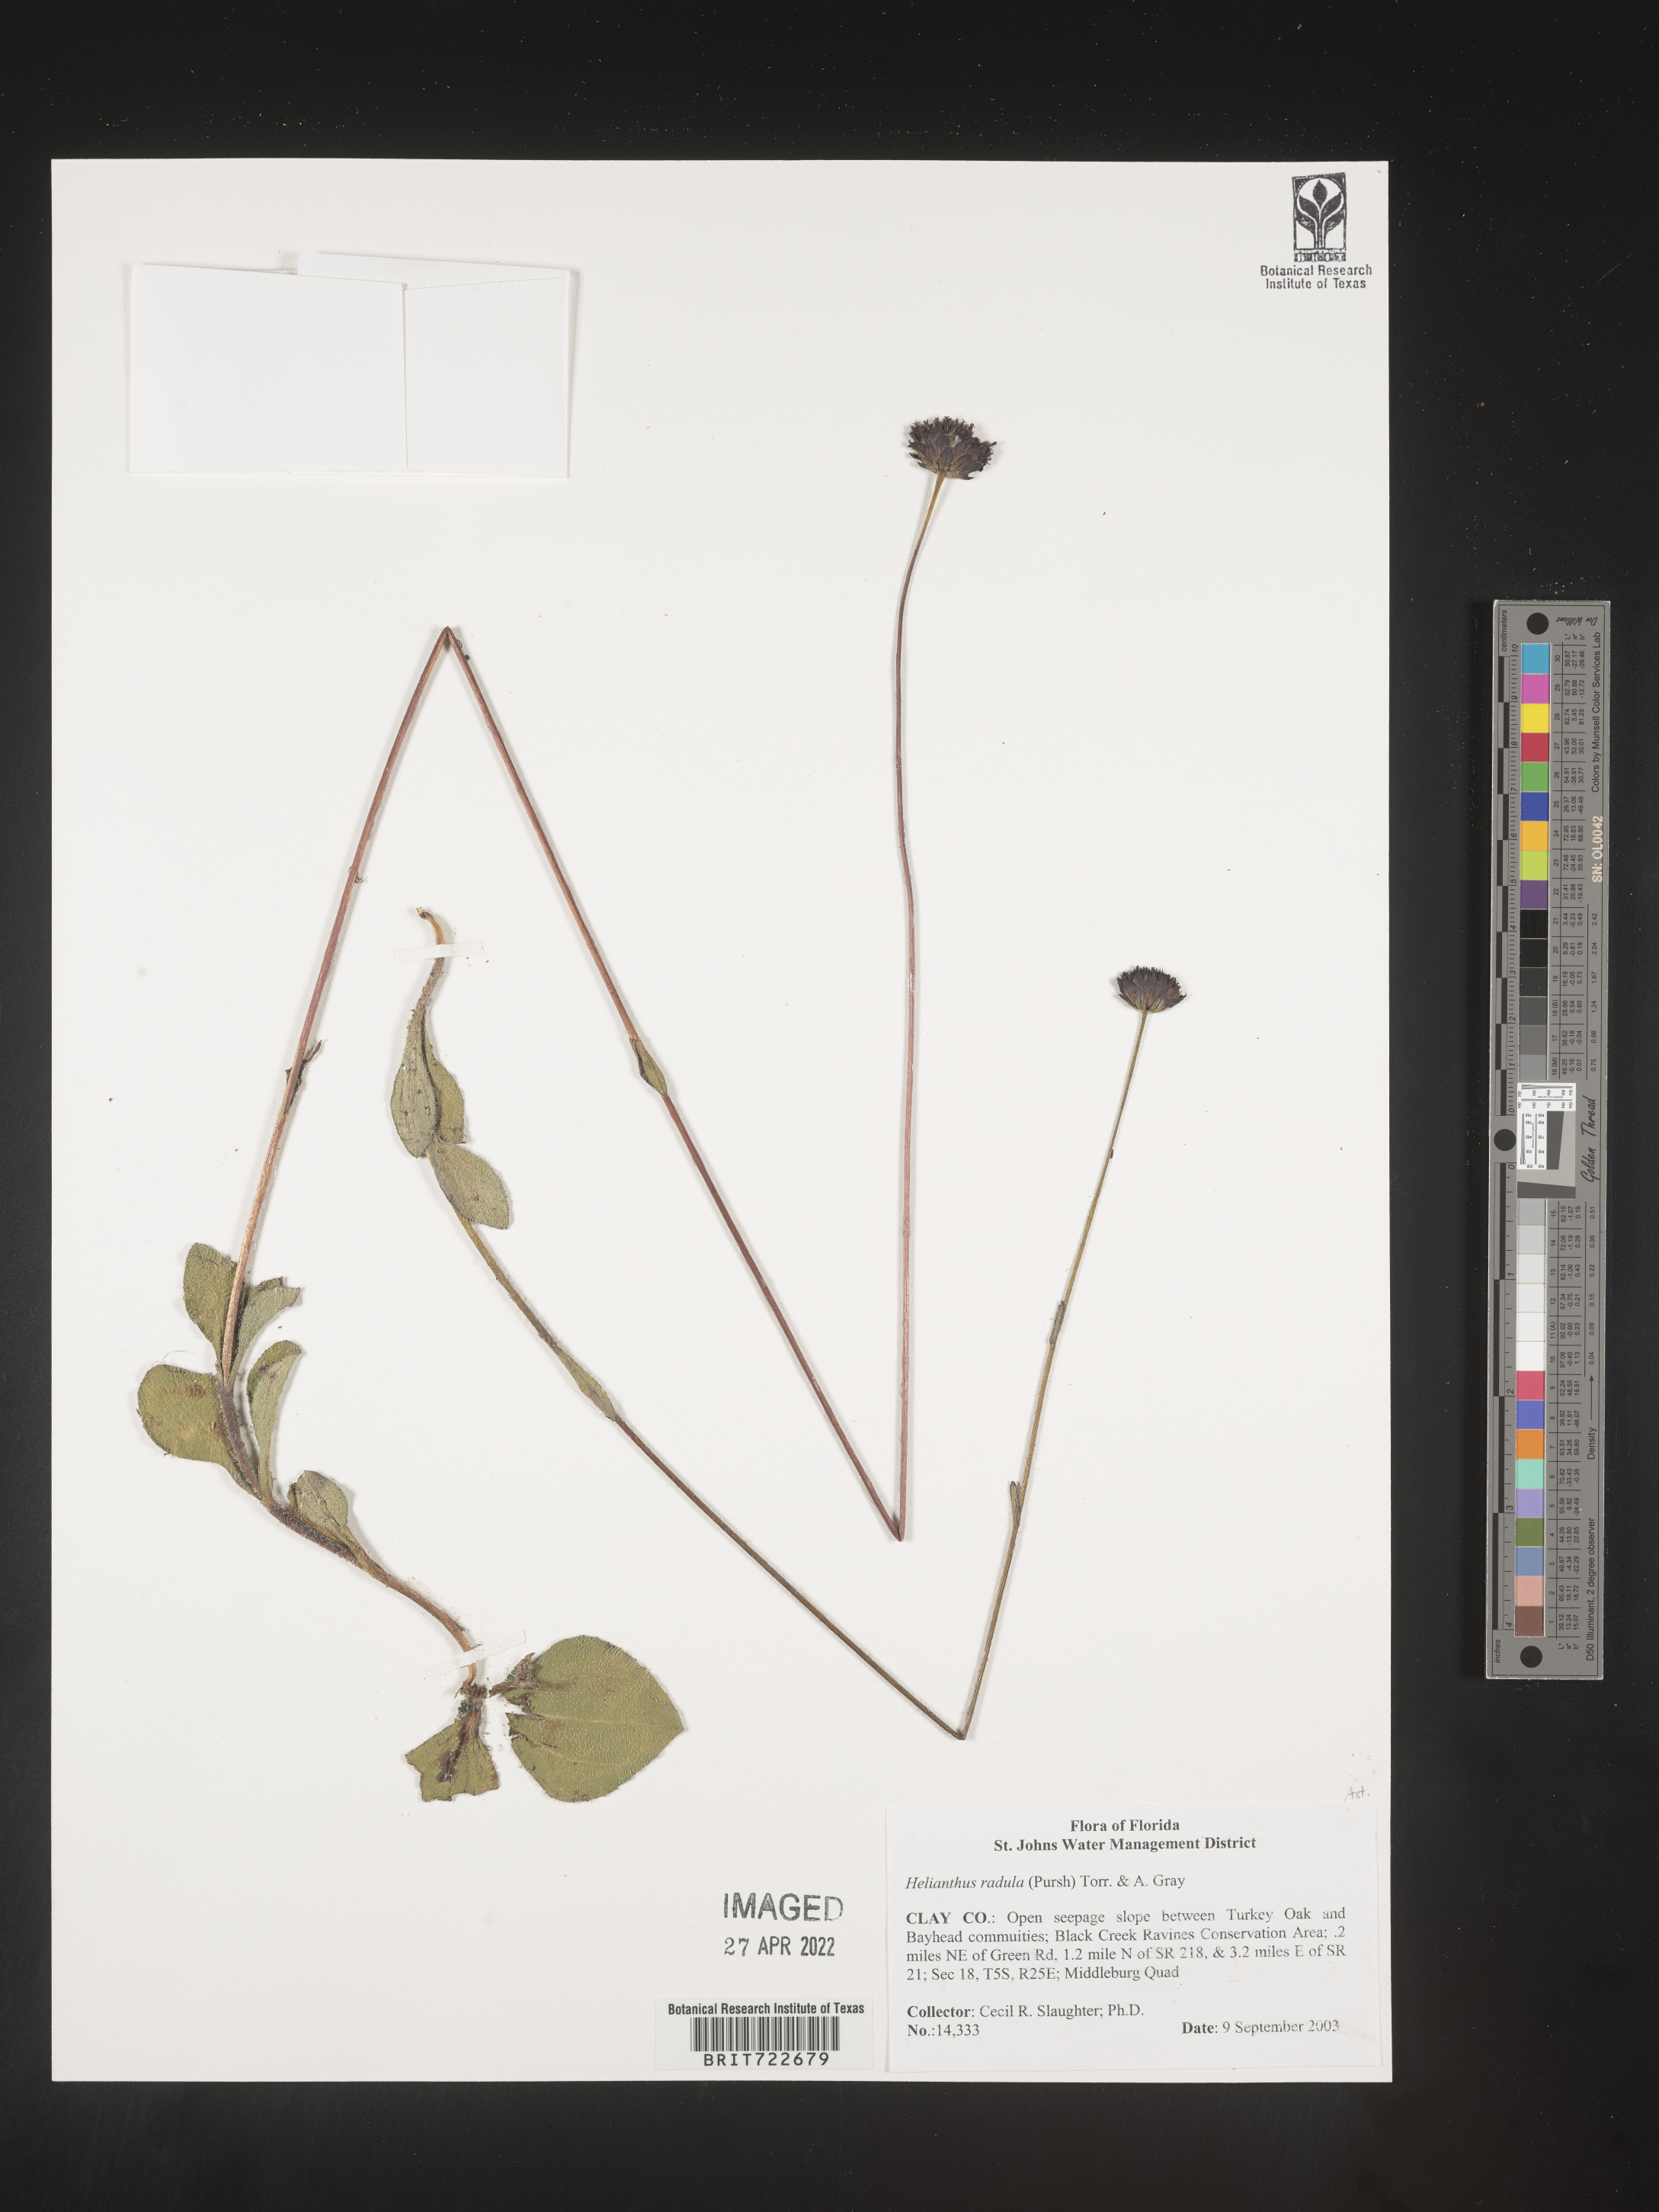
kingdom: Plantae
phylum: Tracheophyta
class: Magnoliopsida
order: Asterales
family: Asteraceae
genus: Helianthus
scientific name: Helianthus radula
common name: Pineland sunflower
